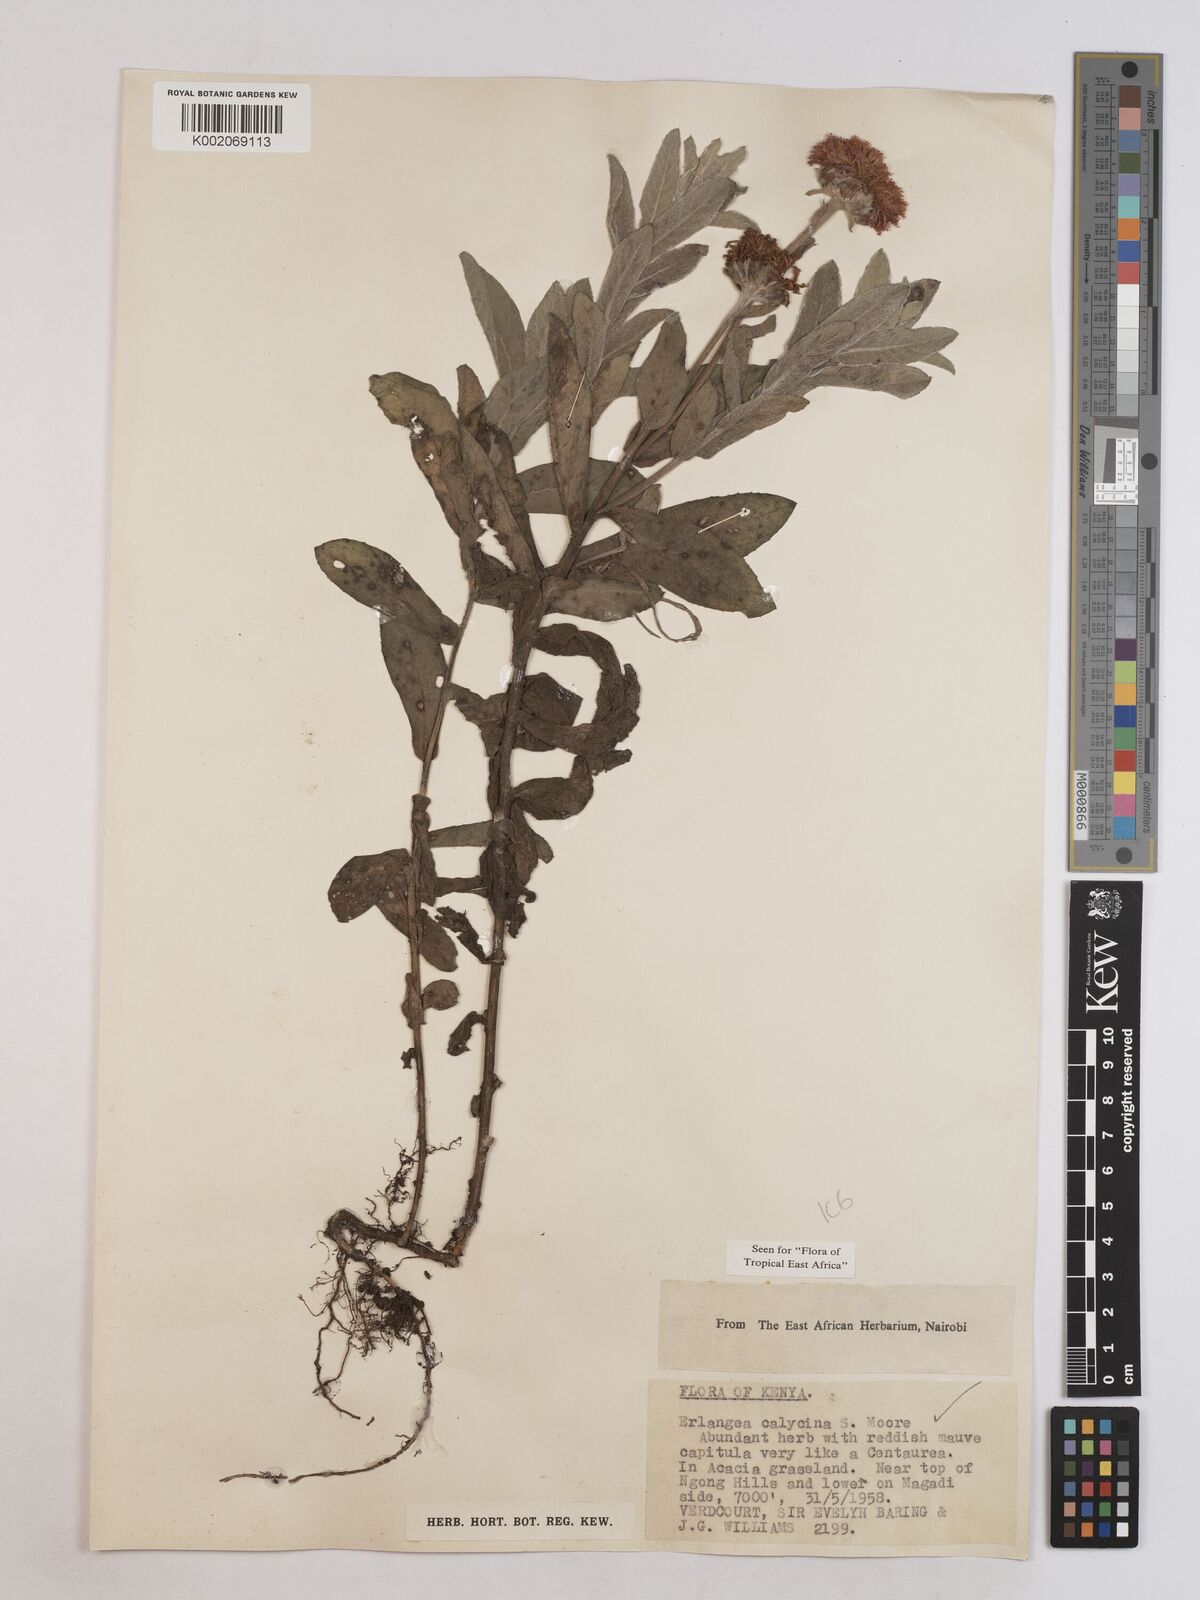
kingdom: Plantae
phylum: Tracheophyta
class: Magnoliopsida
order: Asterales
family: Asteraceae
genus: Erlangea
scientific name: Erlangea calycina
